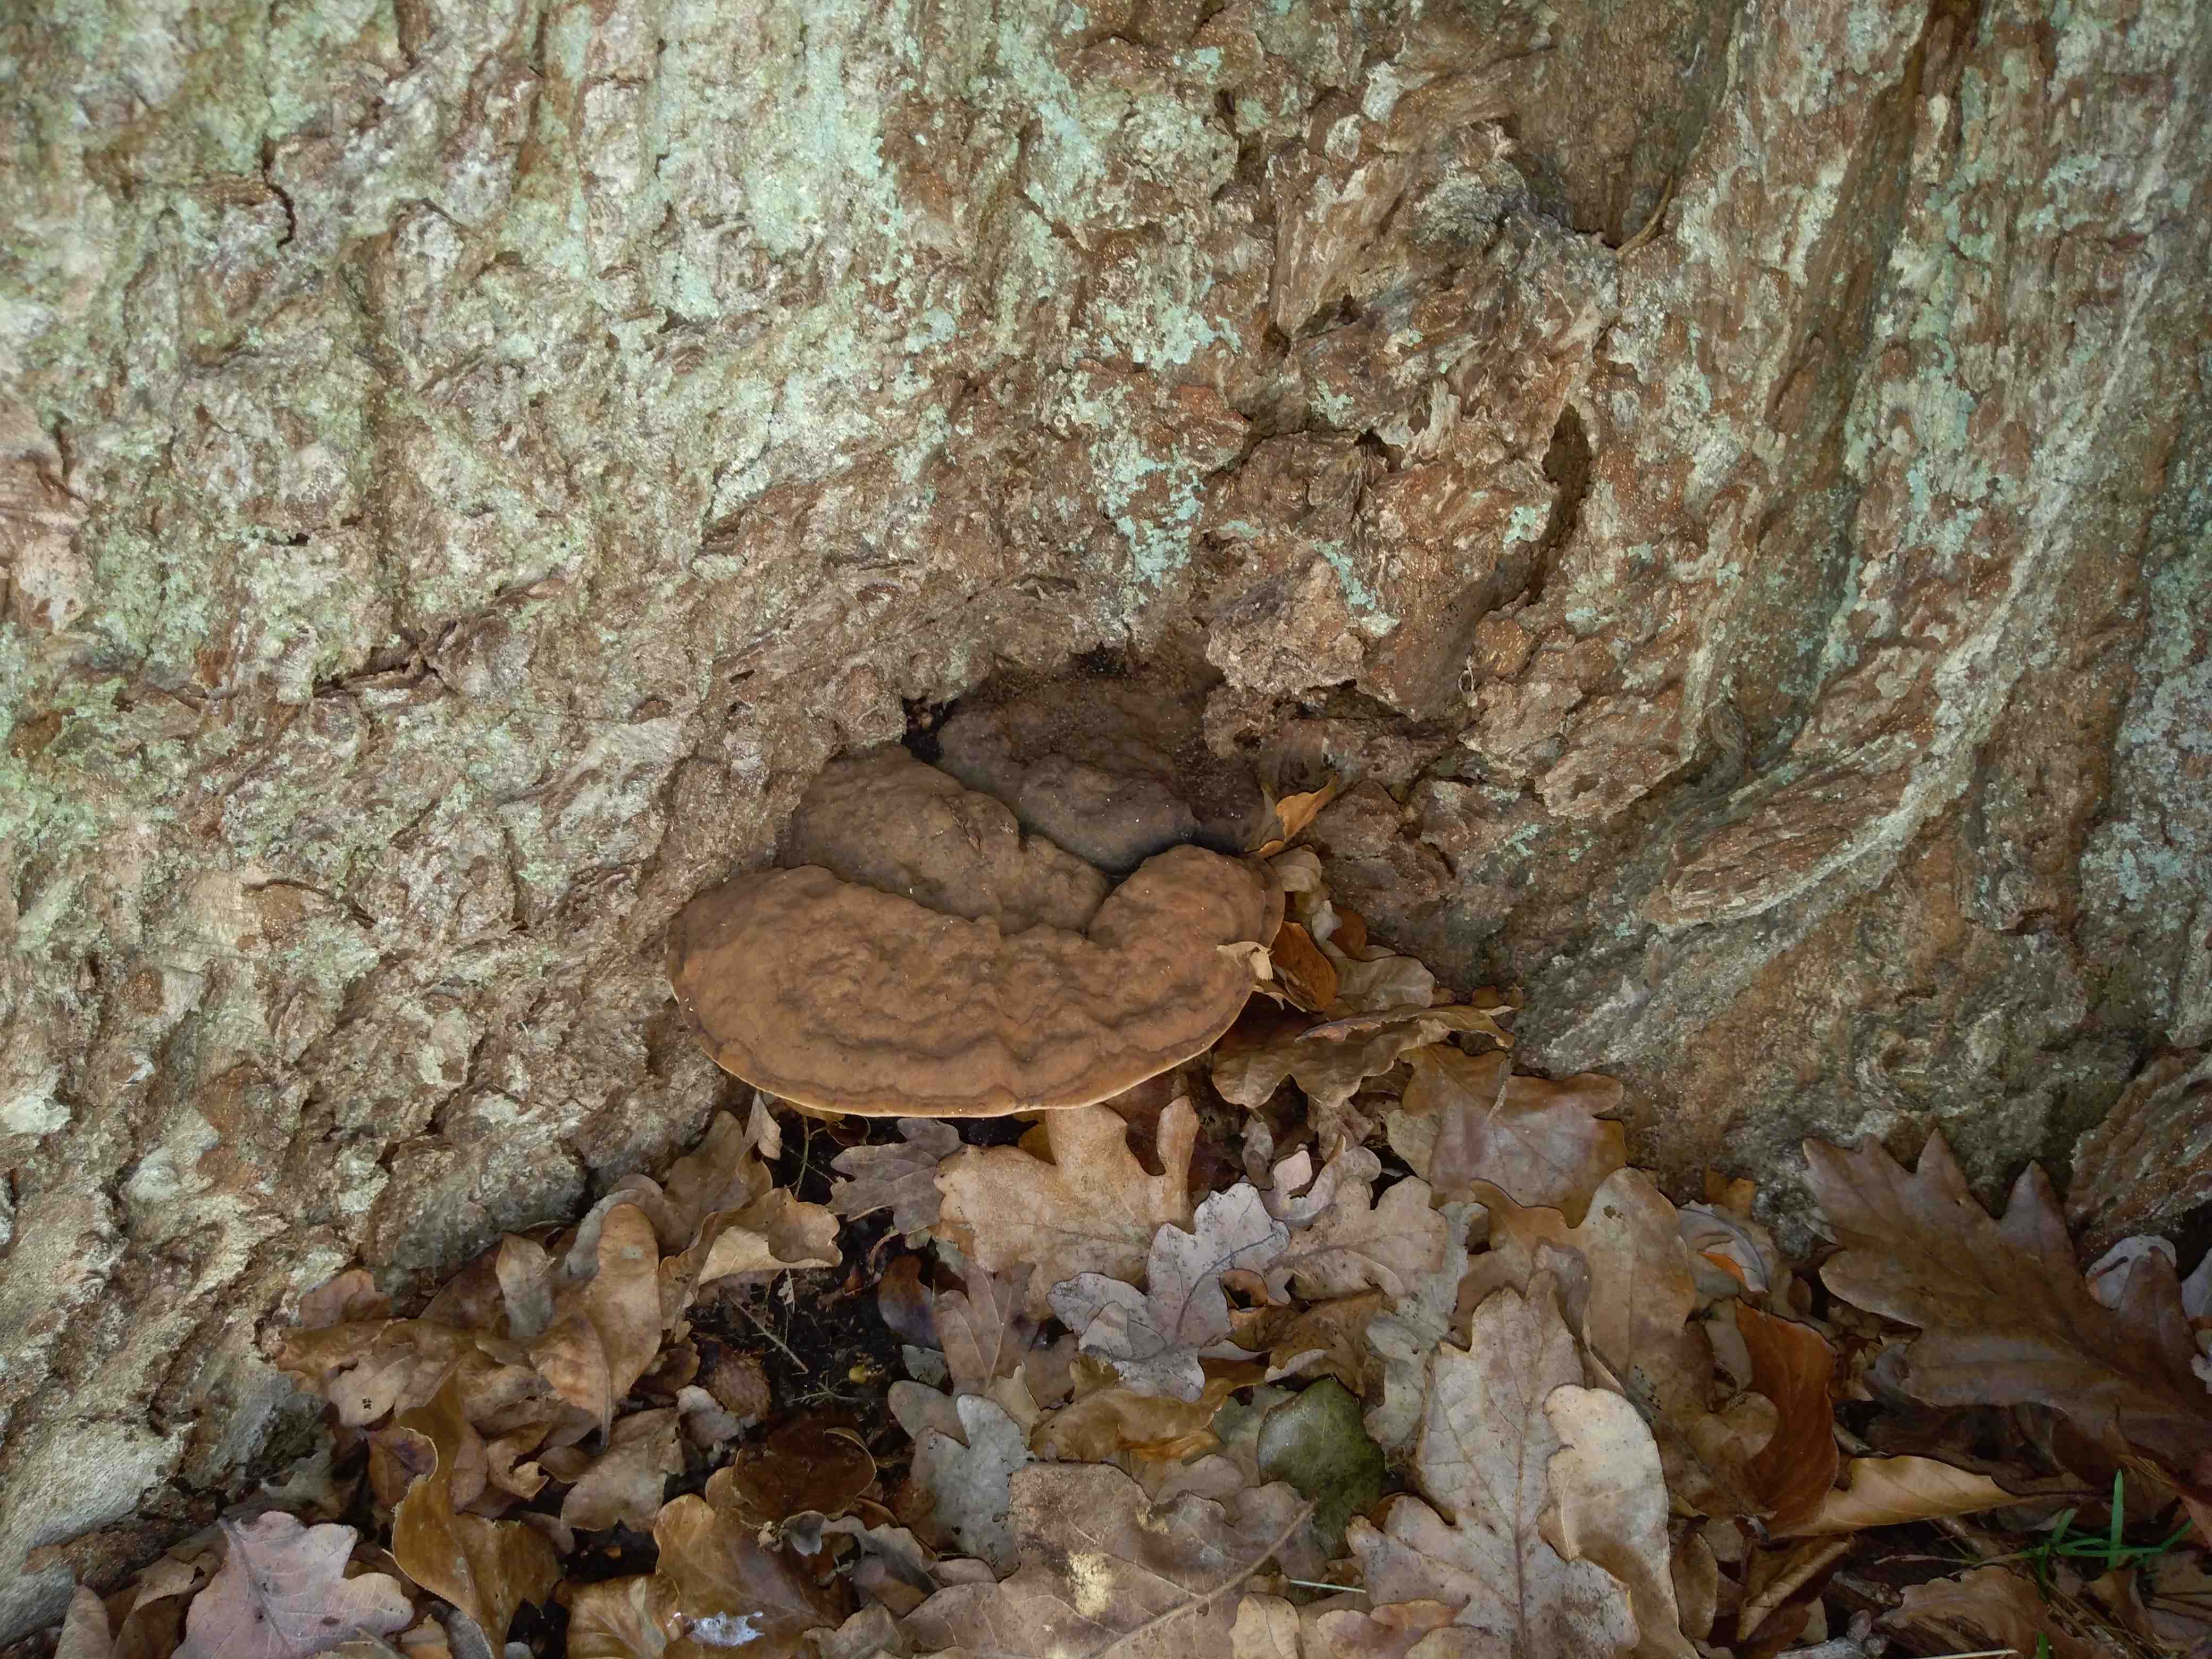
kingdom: Fungi
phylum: Basidiomycota
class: Agaricomycetes
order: Polyporales
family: Polyporaceae
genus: Fomes
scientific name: Fomes fomentarius
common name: tøndersvamp
